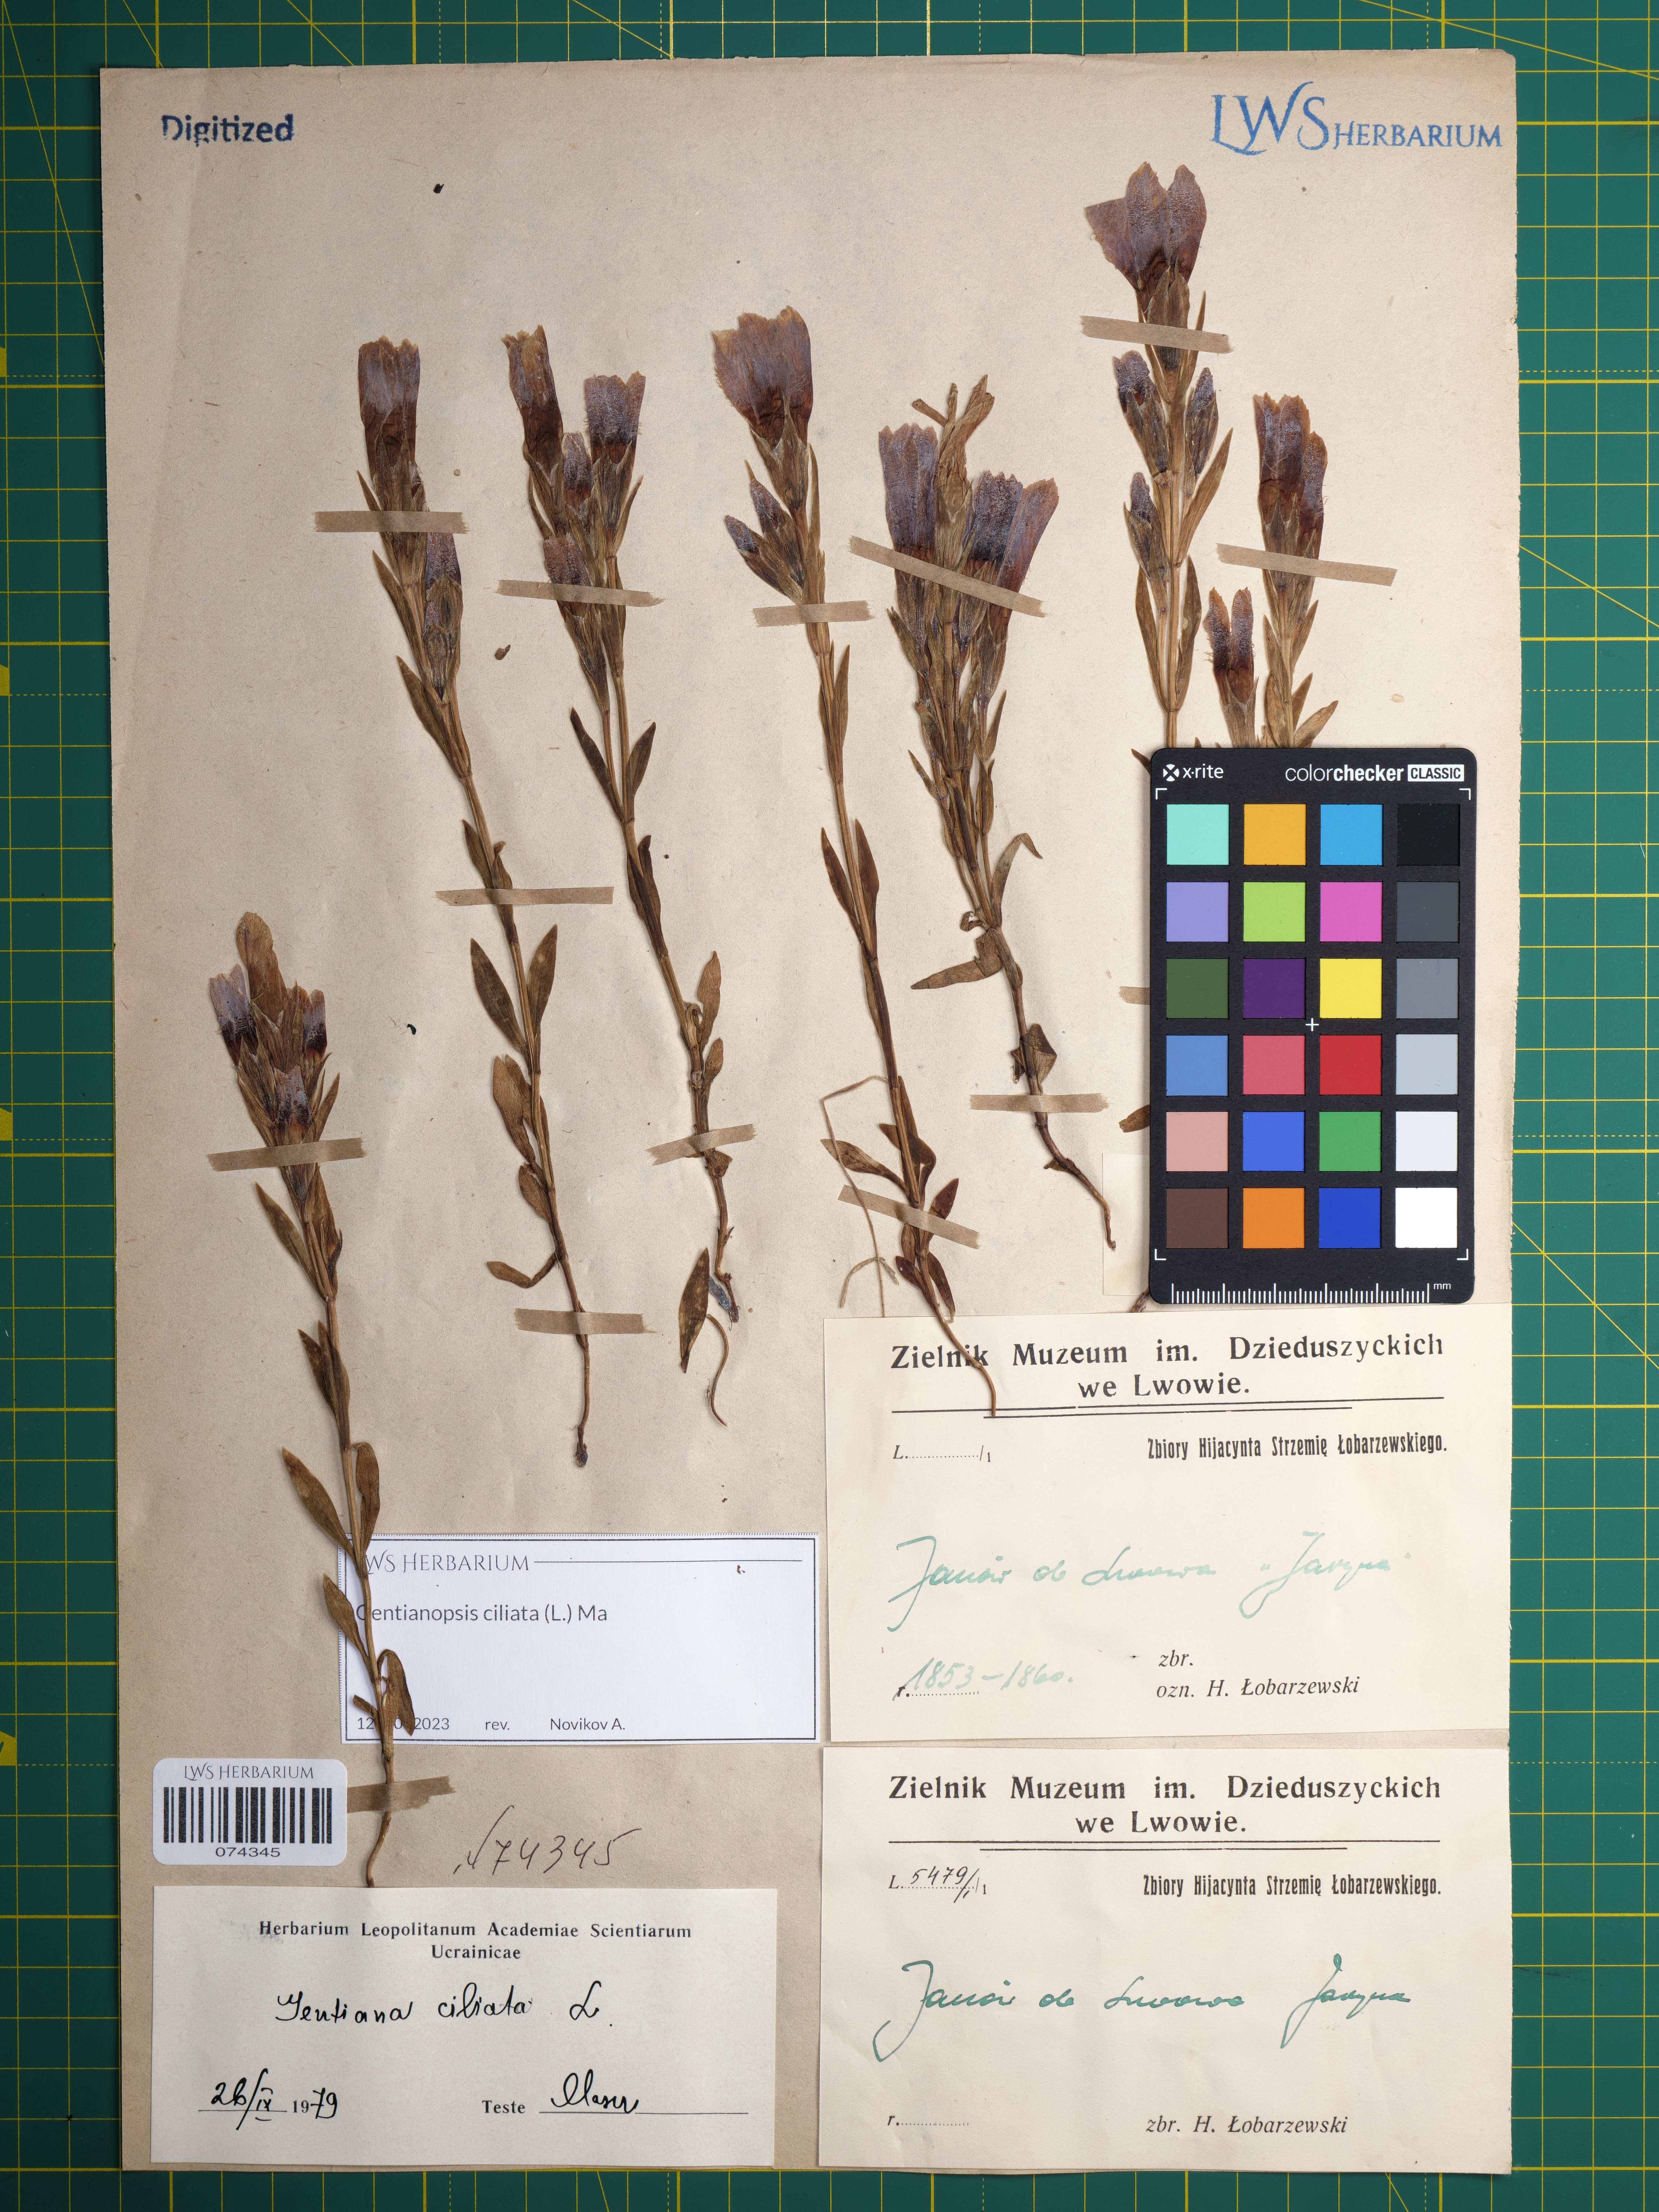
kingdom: Plantae
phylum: Tracheophyta
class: Magnoliopsida
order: Gentianales
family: Gentianaceae
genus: Gentianopsis
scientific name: Gentianopsis ciliata
